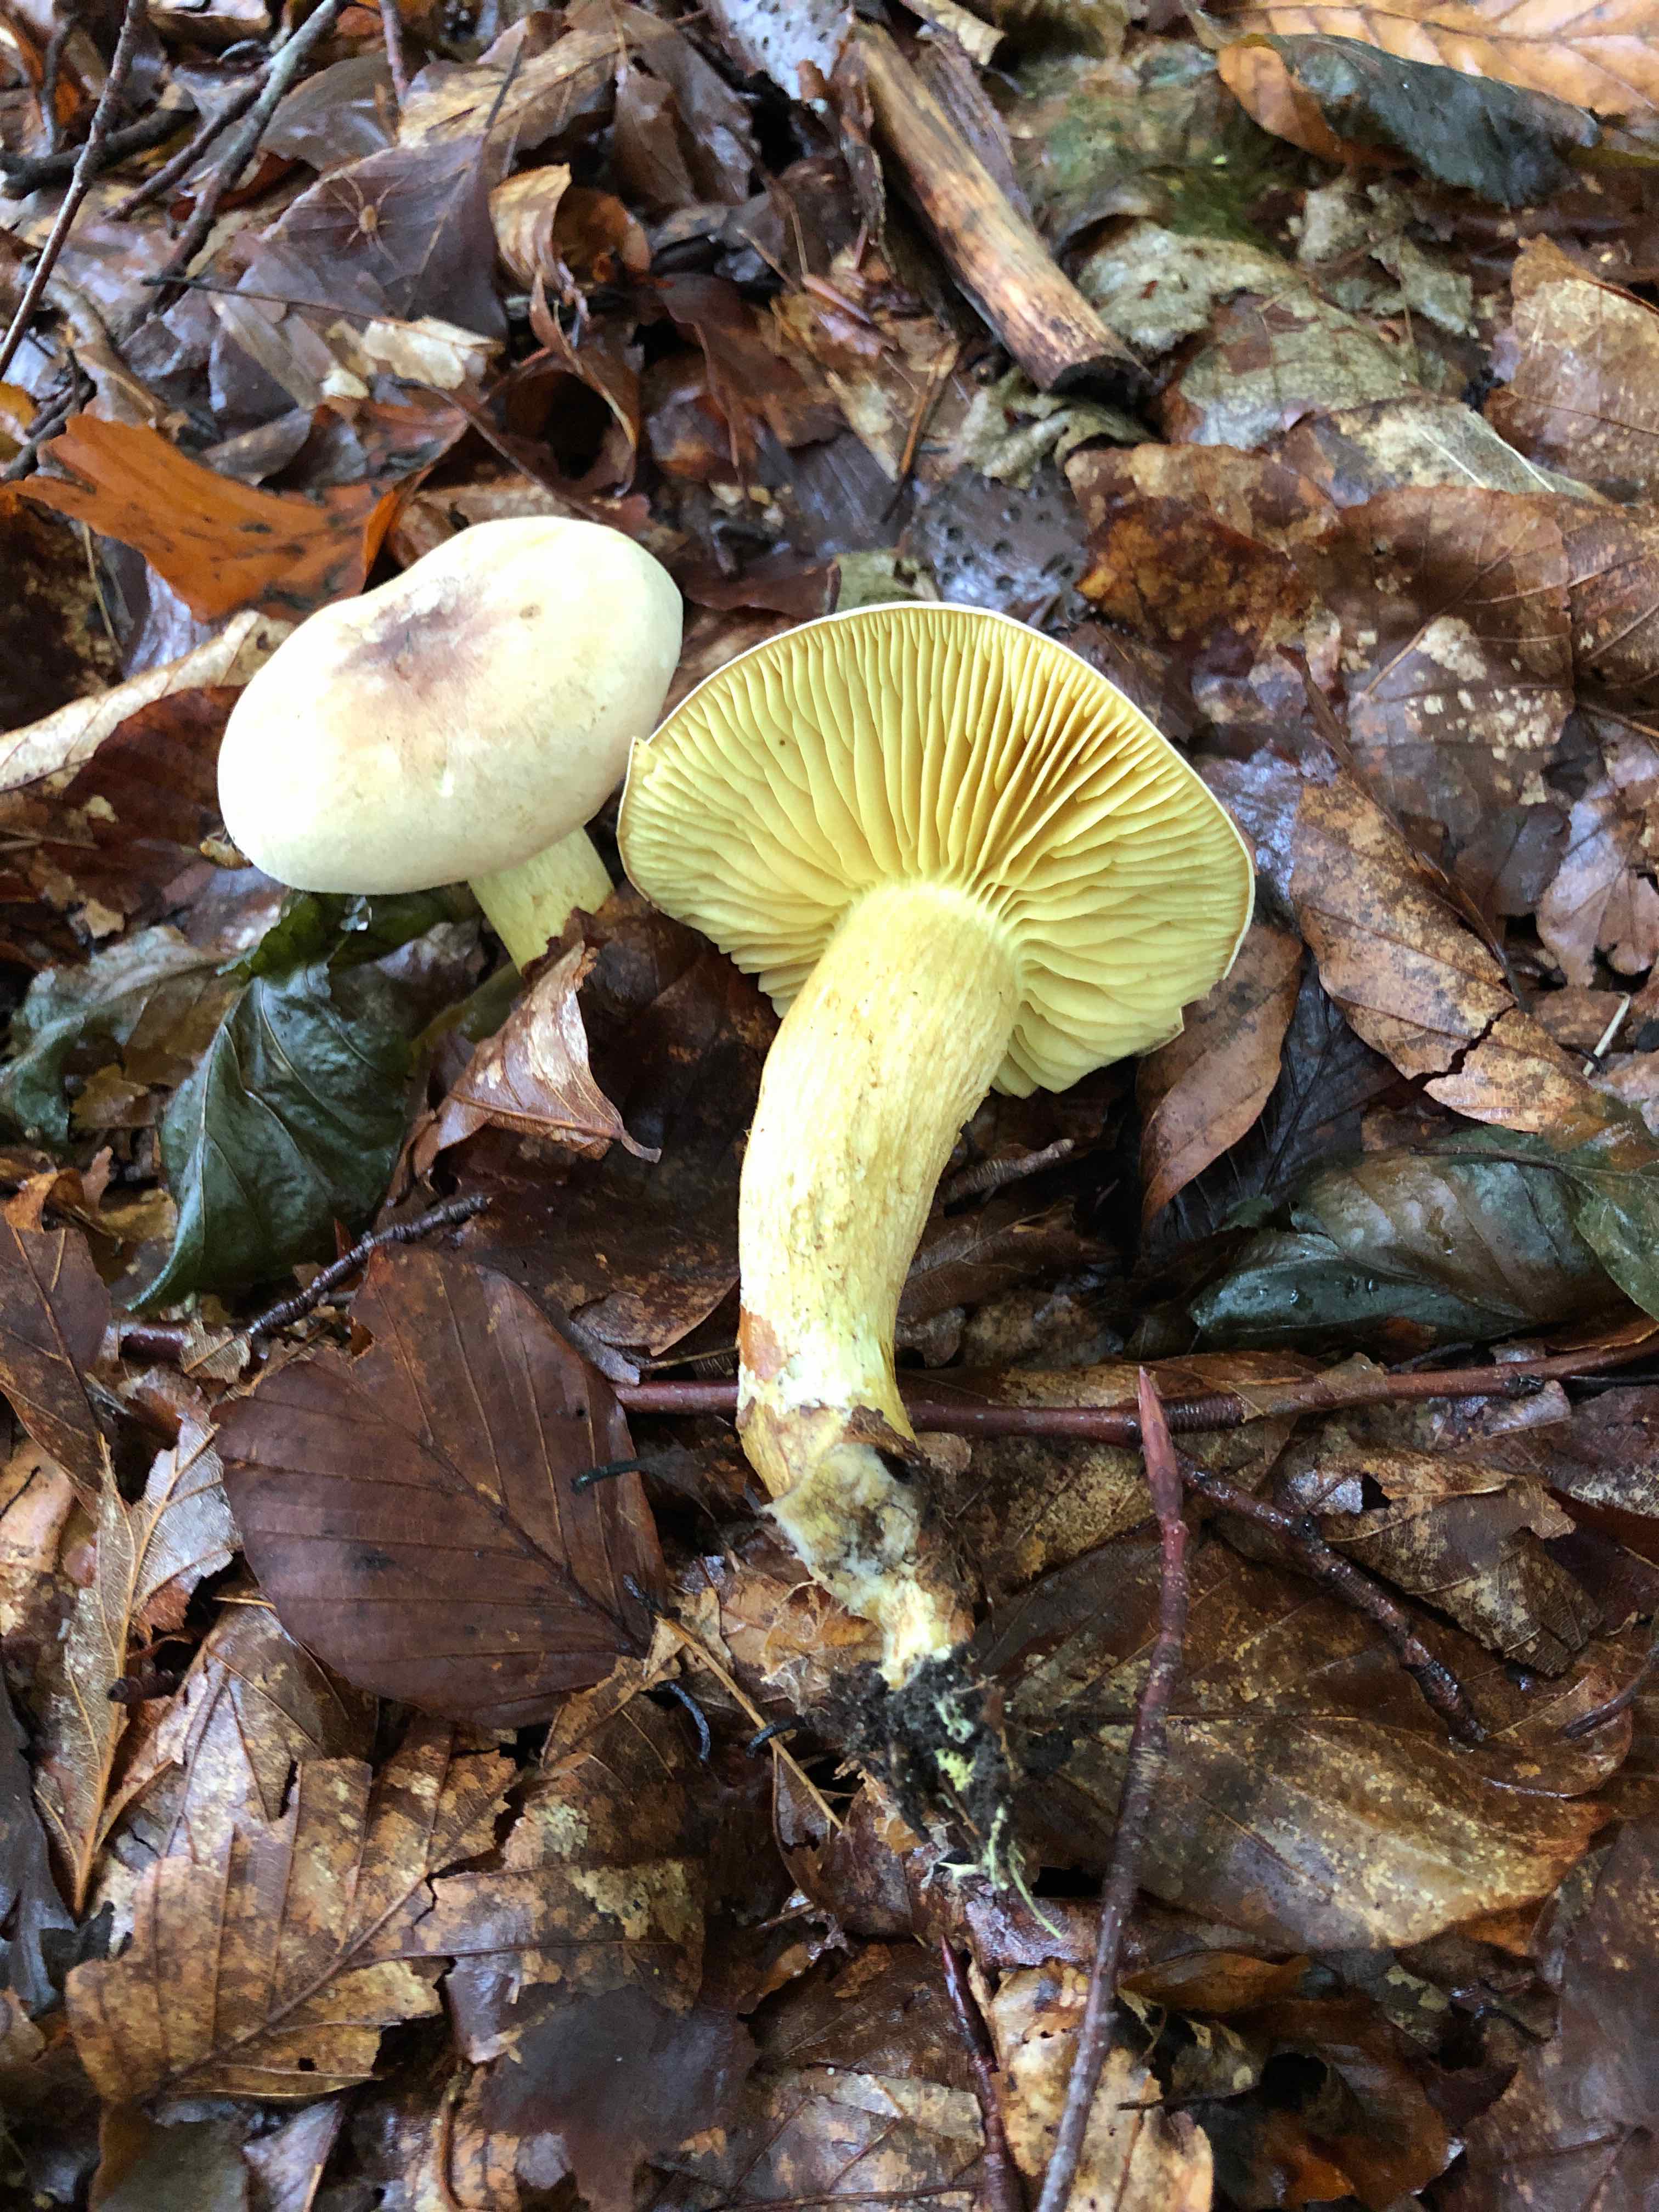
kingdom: Fungi
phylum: Basidiomycota
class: Agaricomycetes
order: Agaricales
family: Tricholomataceae
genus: Tricholoma
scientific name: Tricholoma sulphureum
